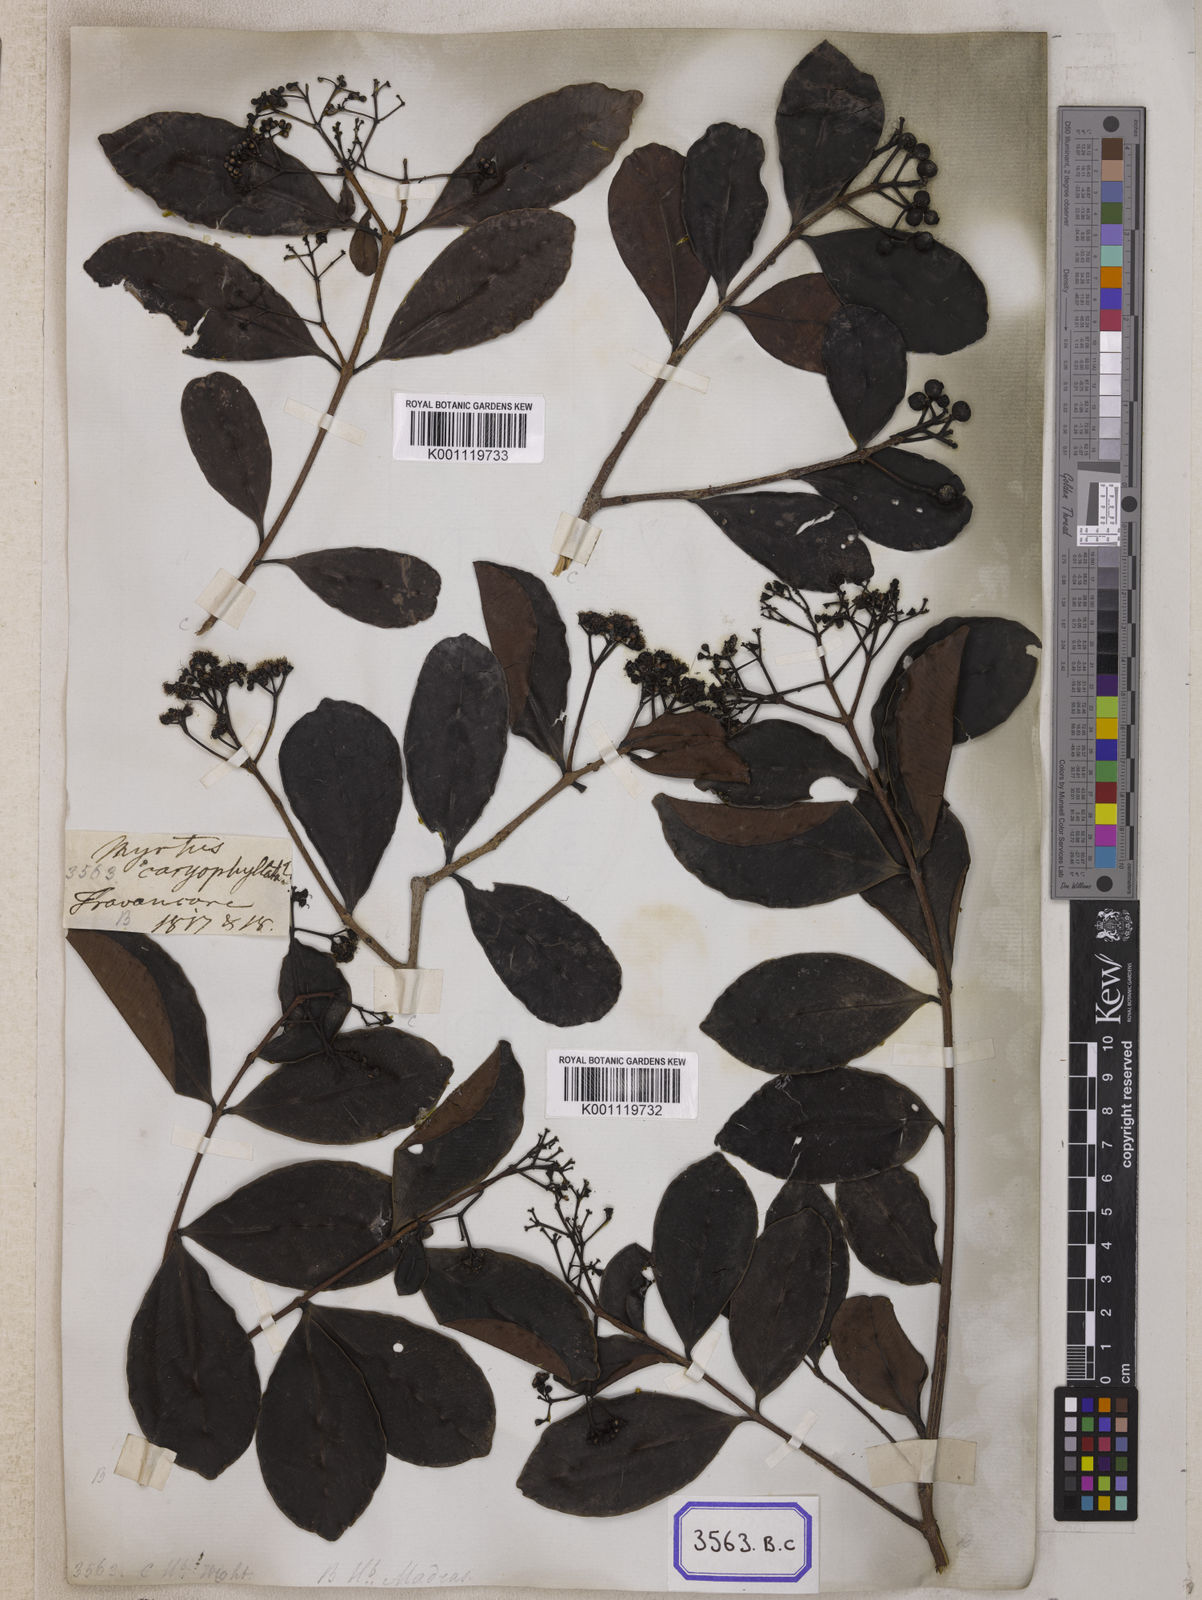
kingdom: Plantae
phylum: Tracheophyta
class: Magnoliopsida
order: Myrtales
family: Myrtaceae
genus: Syzygium
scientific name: Syzygium caryophyllatum
